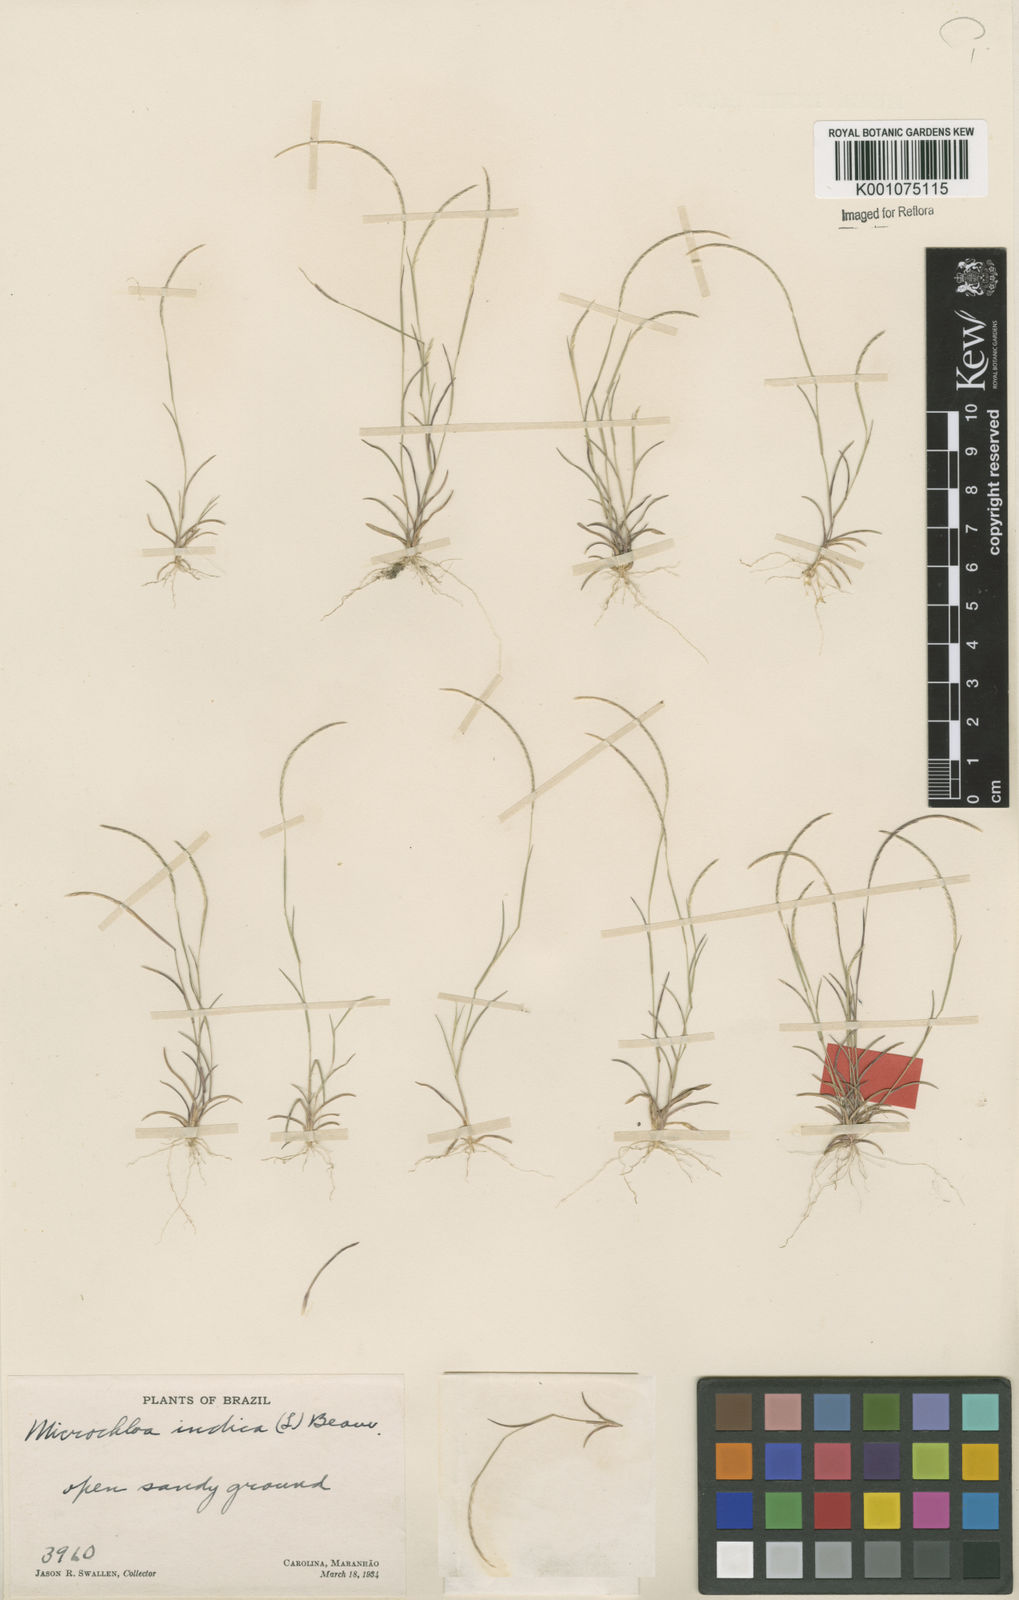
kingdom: Plantae
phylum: Tracheophyta
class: Liliopsida
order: Poales
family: Poaceae
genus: Microchloa
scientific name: Microchloa indica
